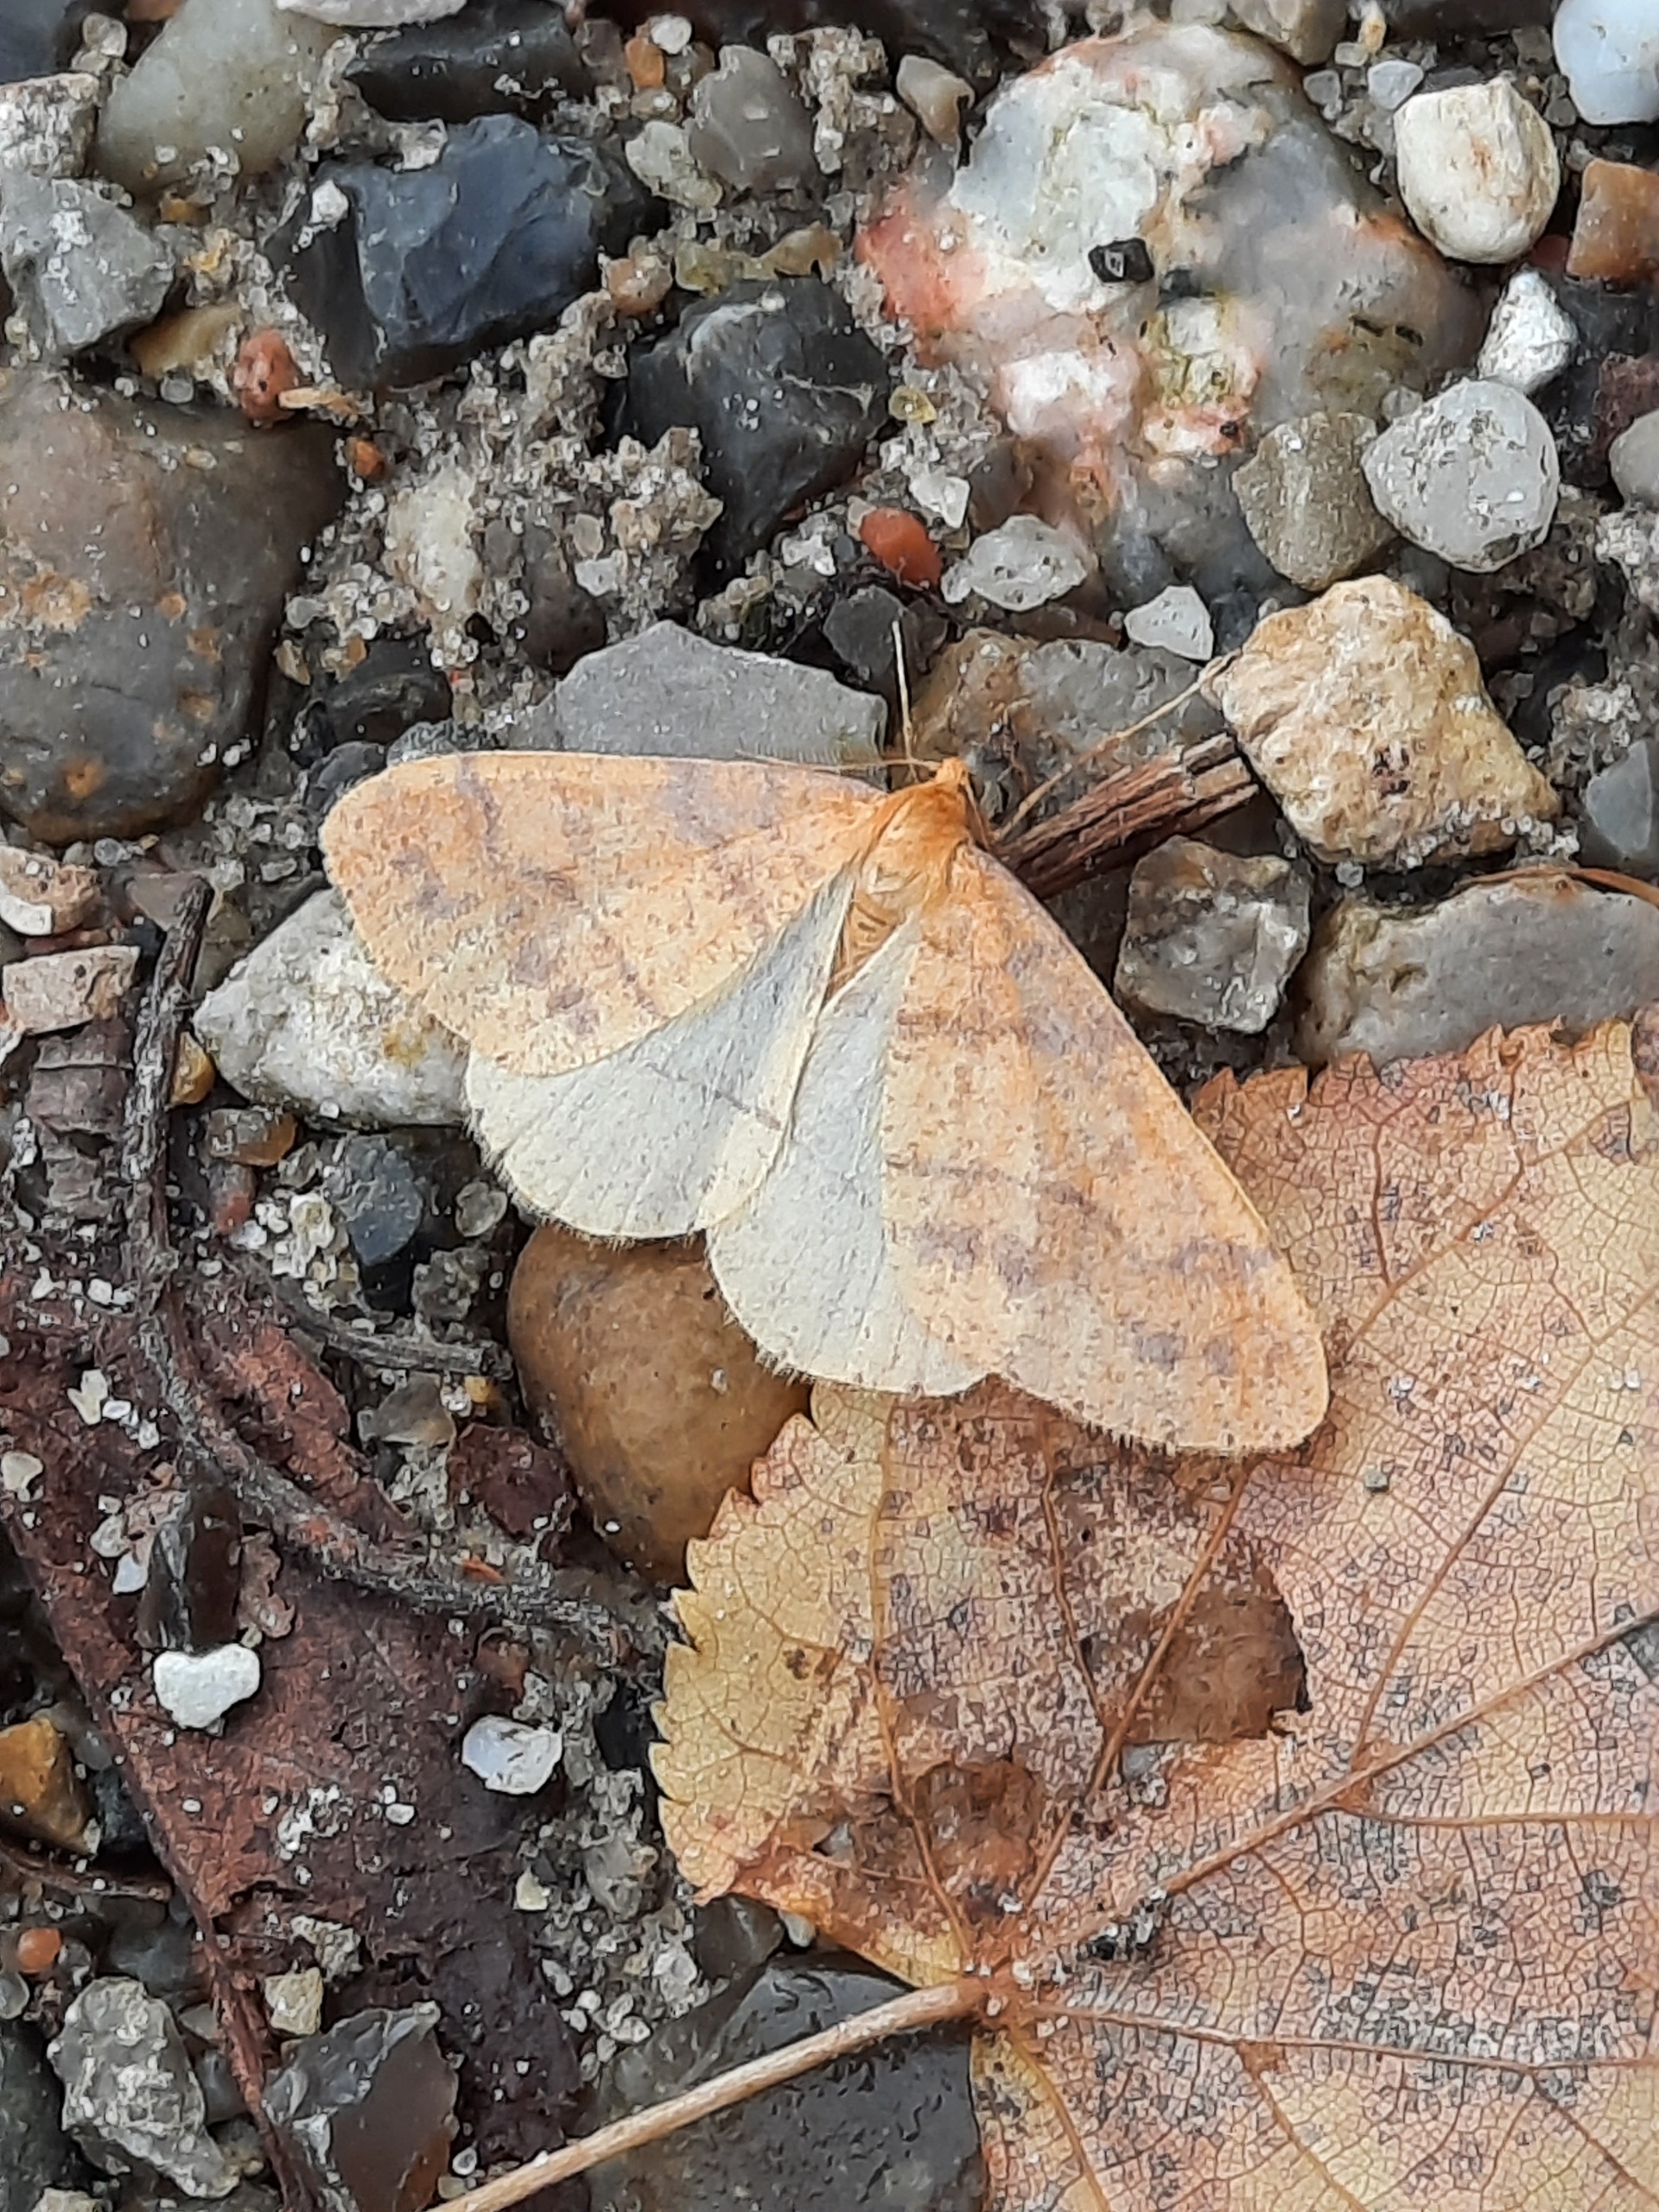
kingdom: Animalia
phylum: Arthropoda
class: Insecta
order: Lepidoptera
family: Geometridae
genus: Agriopis
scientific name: Agriopis aurantiaria
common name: Guldgul frostmåler
